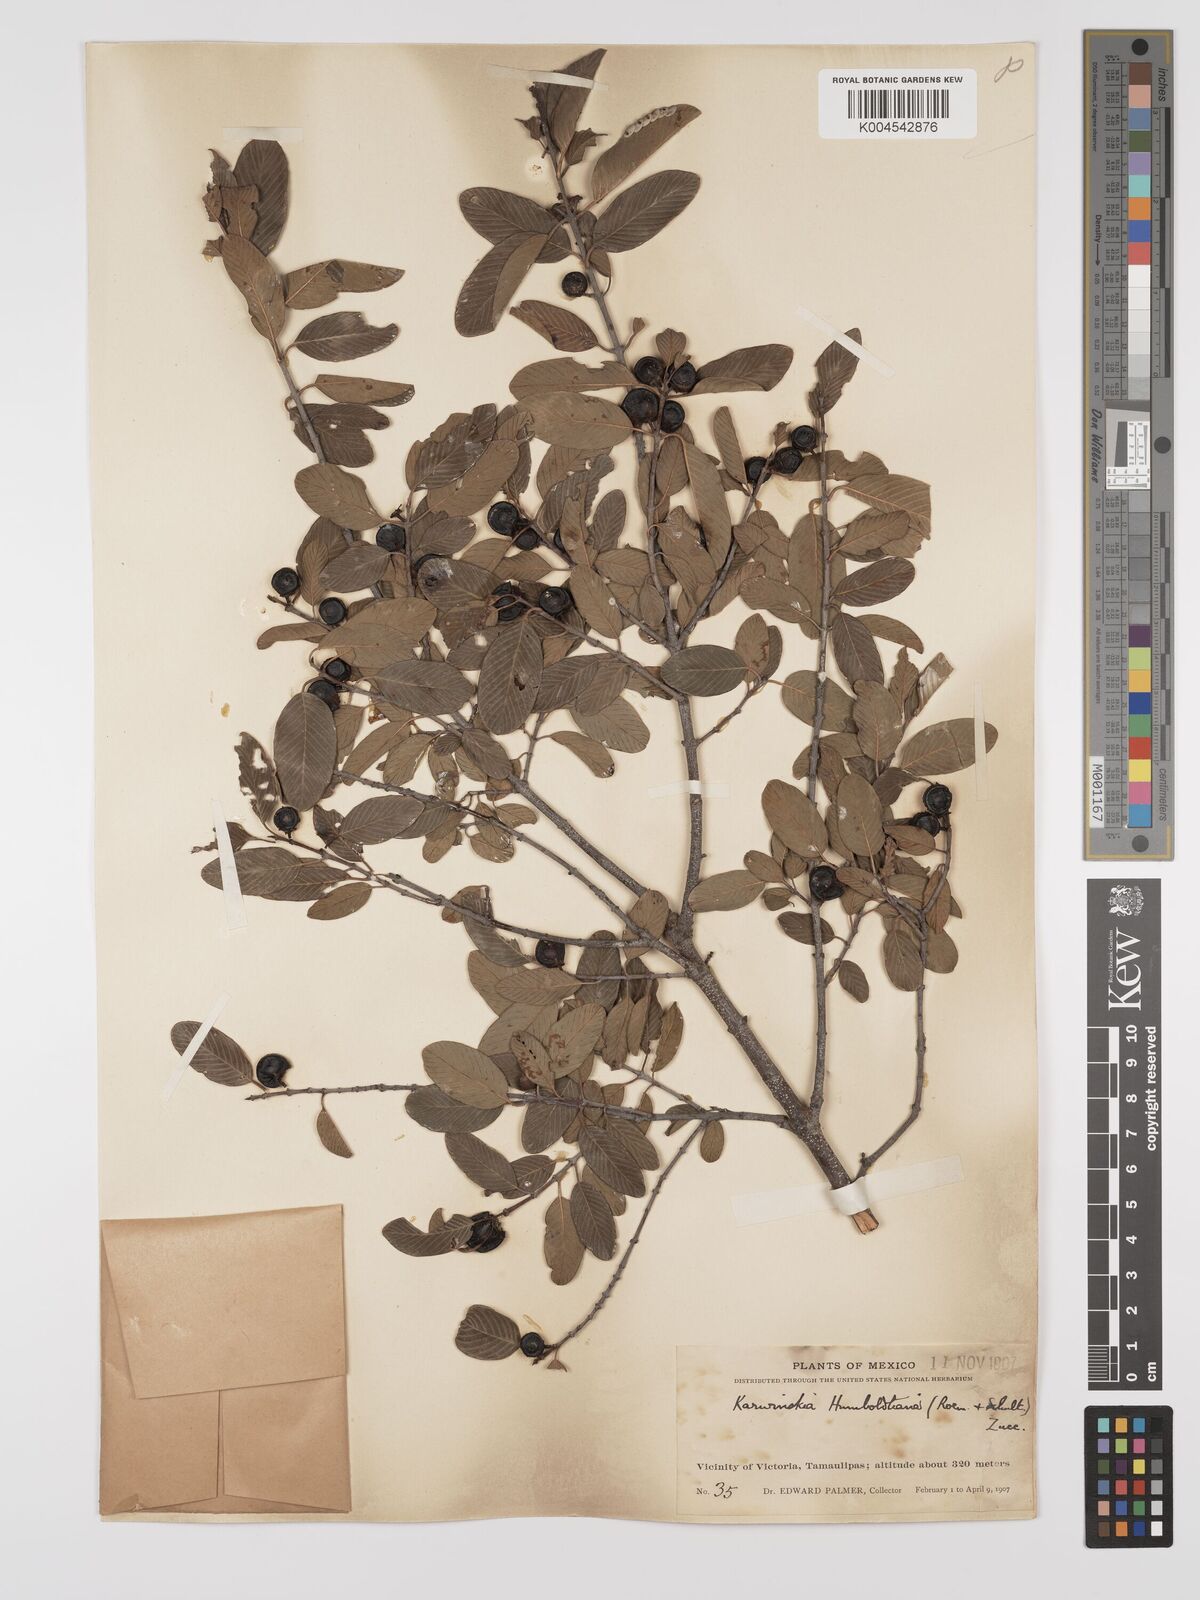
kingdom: Plantae
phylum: Tracheophyta
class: Magnoliopsida
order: Rosales
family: Rhamnaceae
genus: Karwinskia
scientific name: Karwinskia humboldtiana
